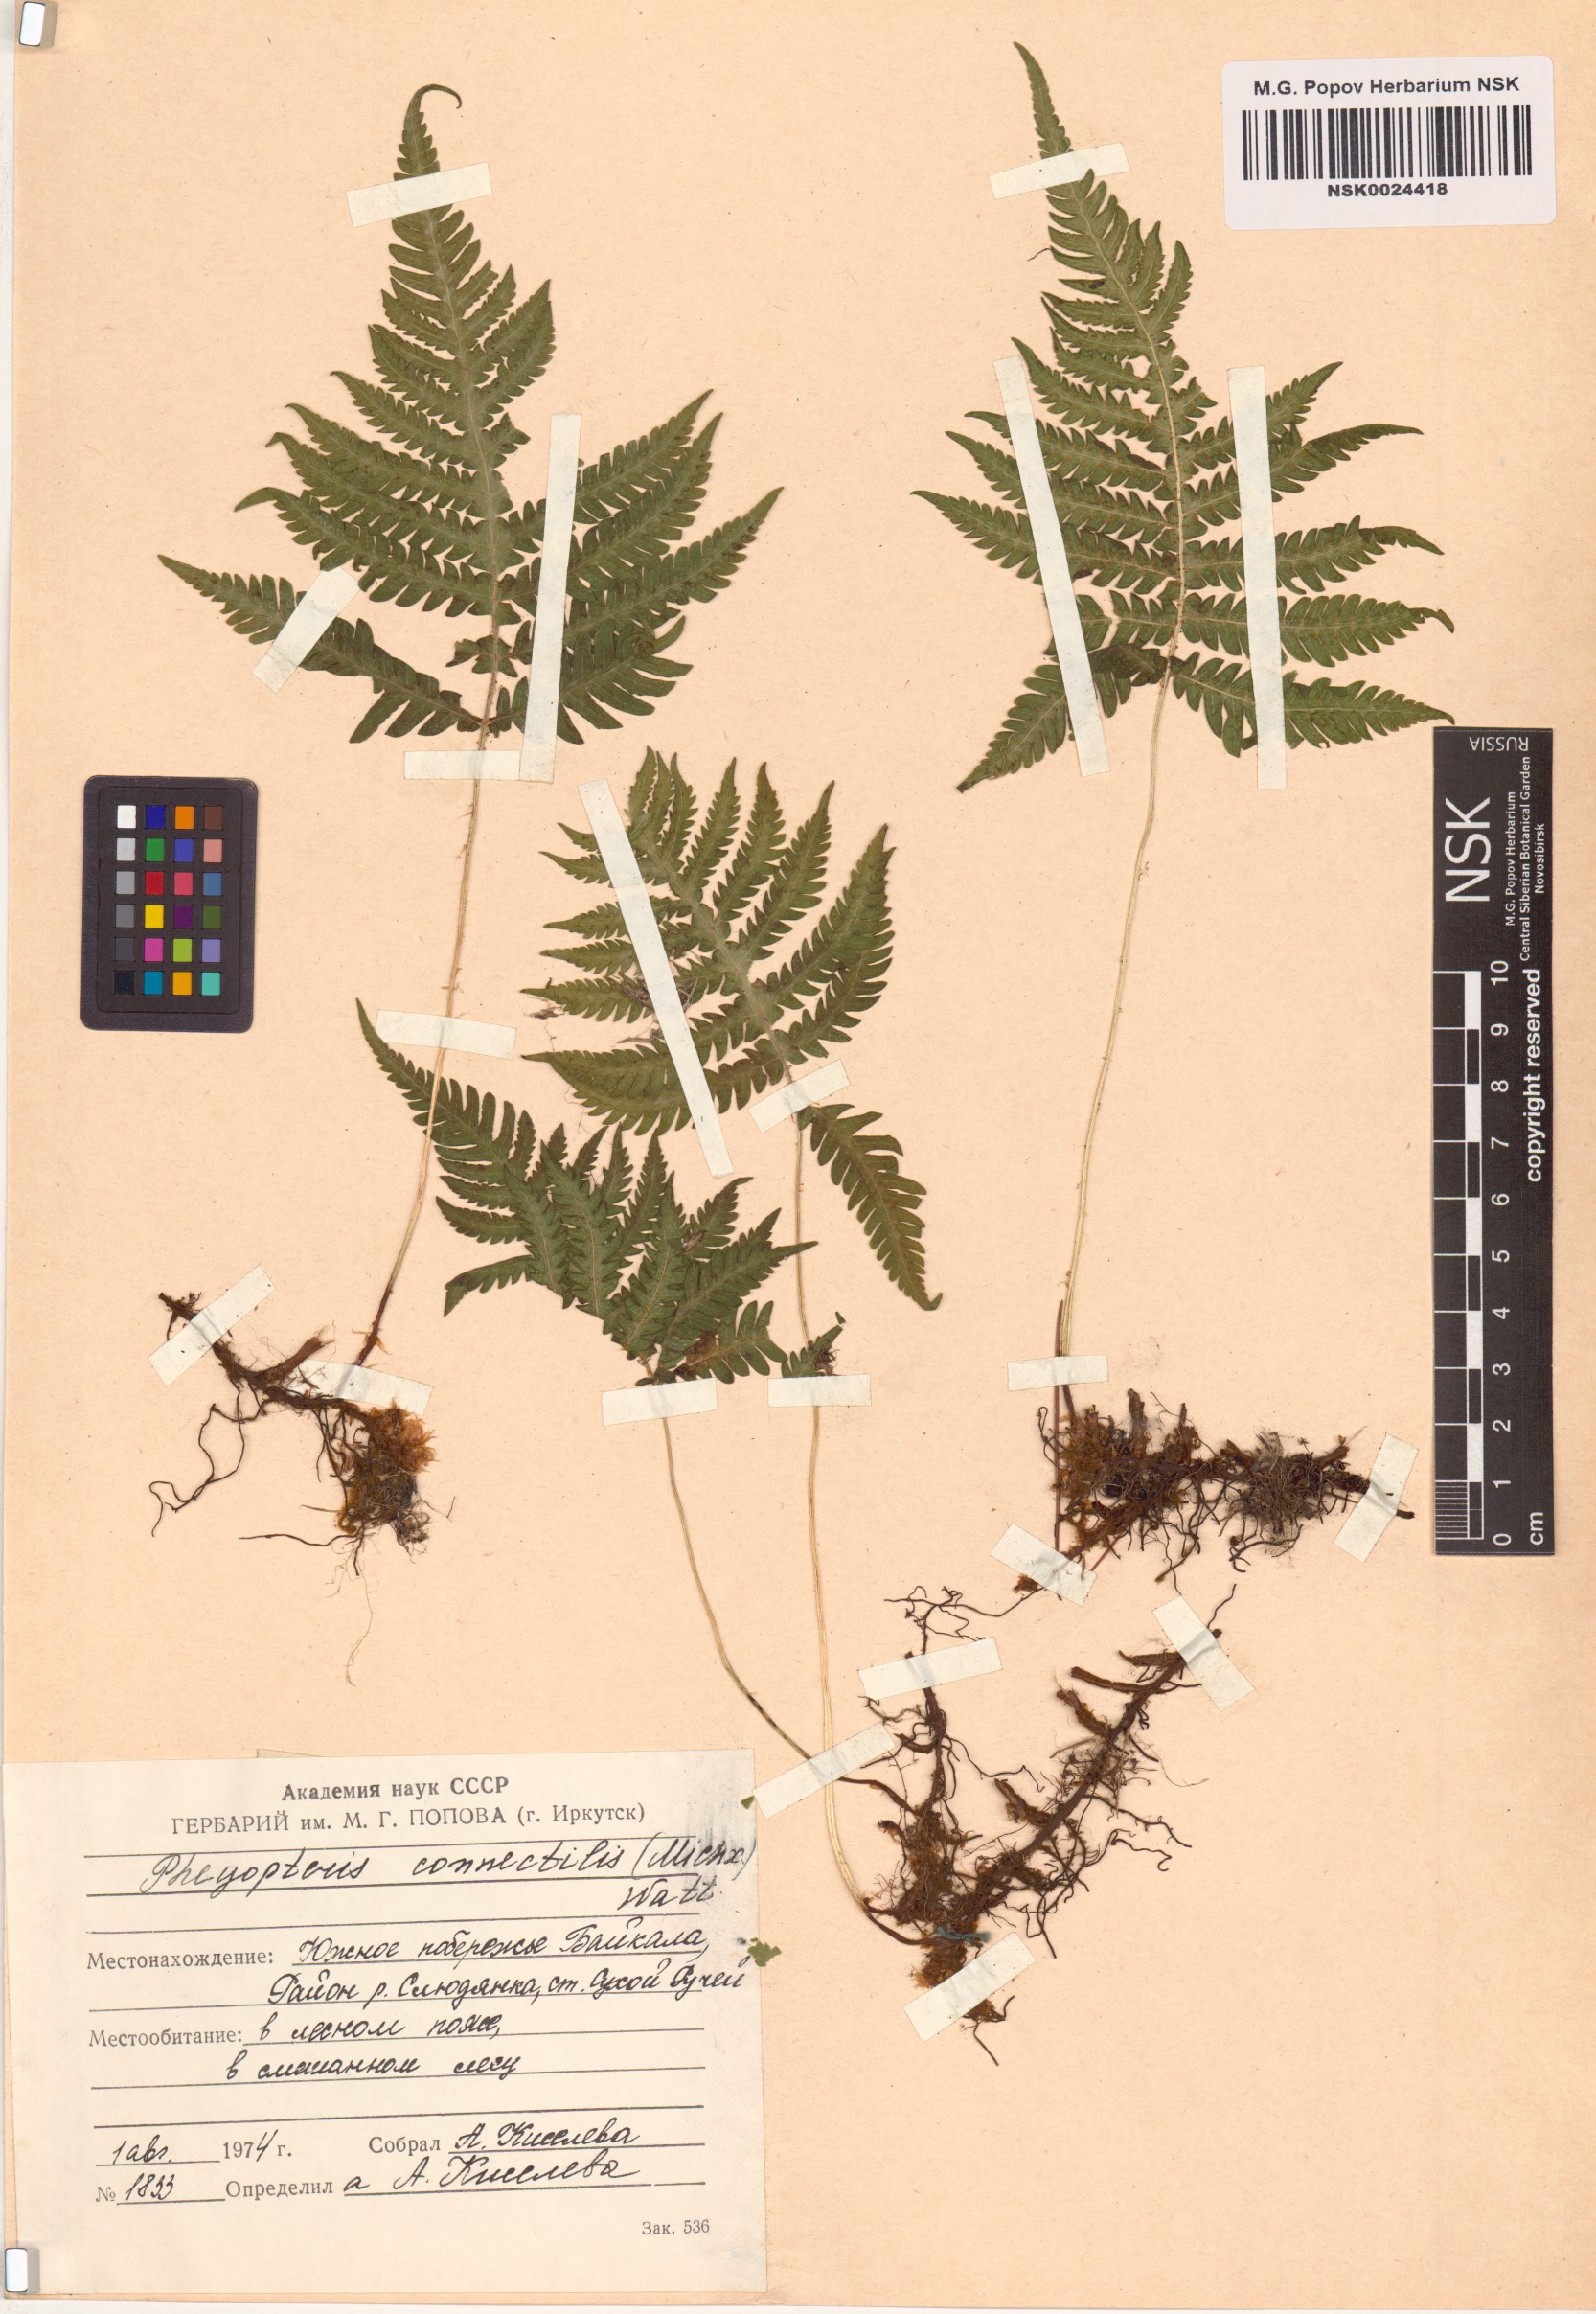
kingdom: Plantae
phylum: Tracheophyta
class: Polypodiopsida
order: Polypodiales
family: Thelypteridaceae
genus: Phegopteris
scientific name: Phegopteris connectilis
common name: Beech fern
